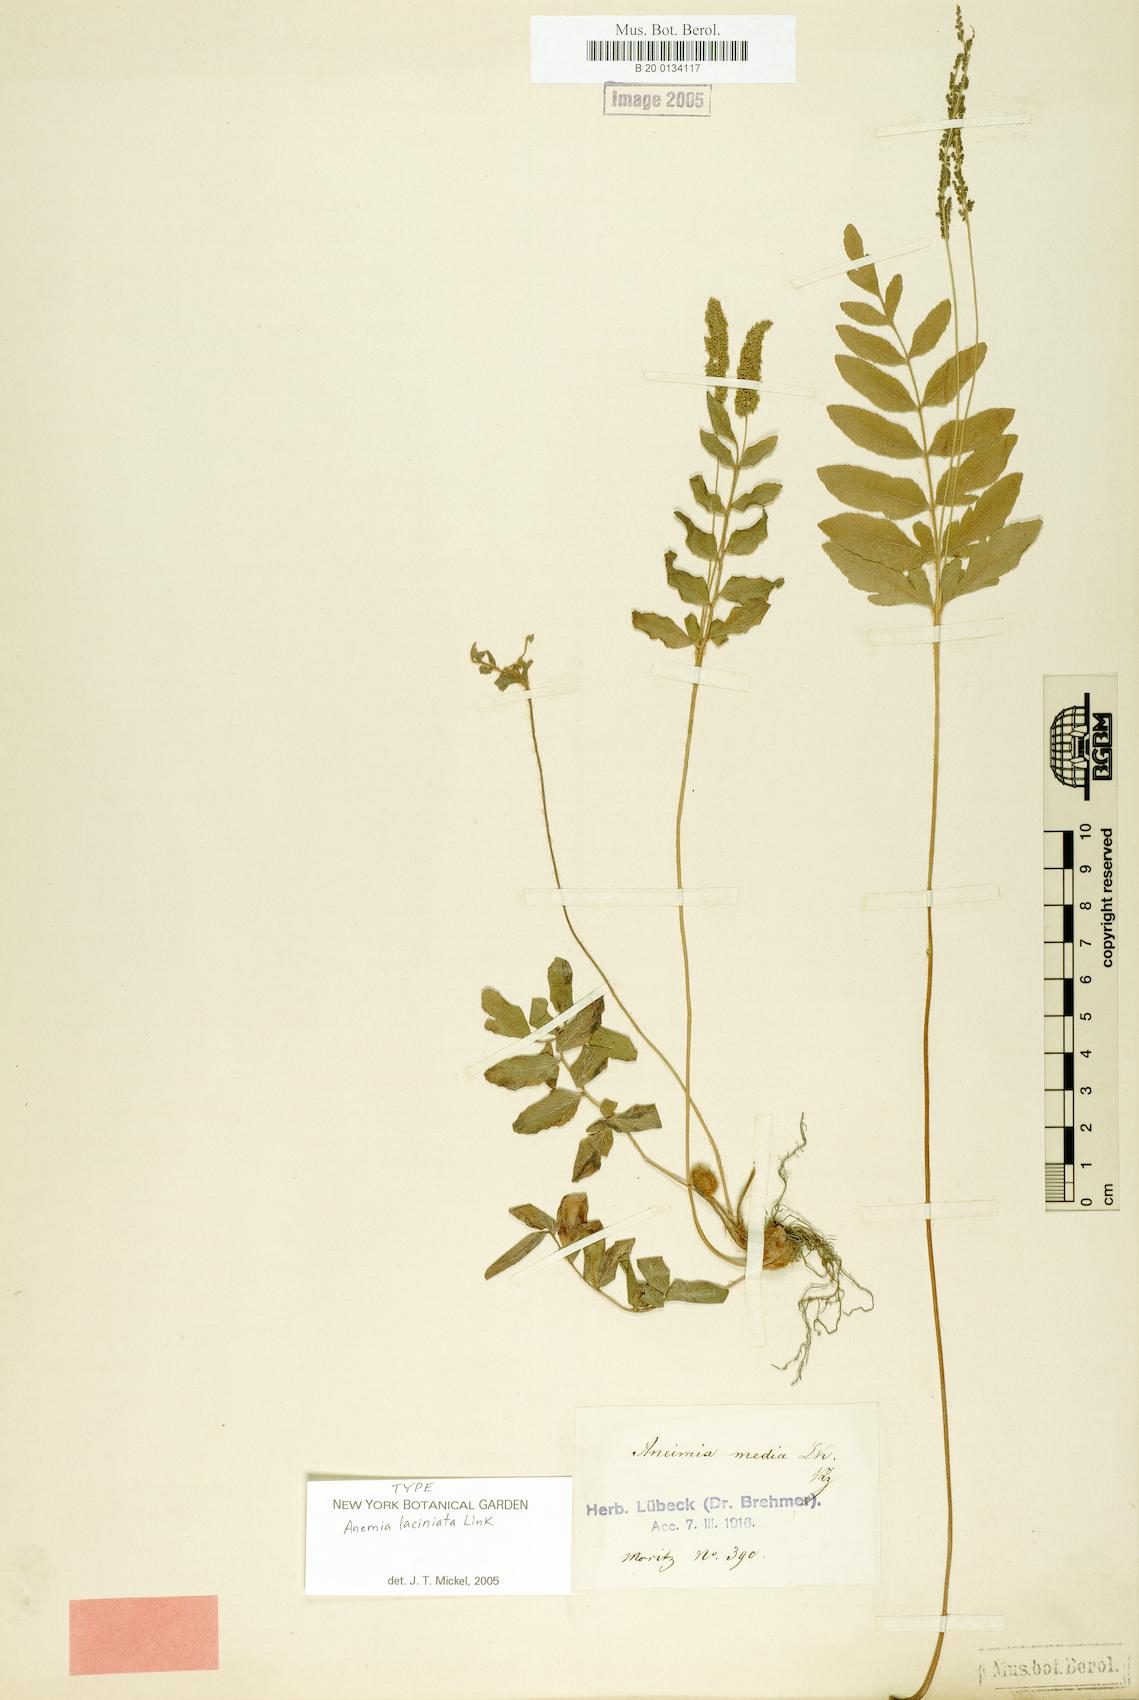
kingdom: Plantae
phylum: Tracheophyta
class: Polypodiopsida
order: Schizaeales
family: Anemiaceae
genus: Anemia
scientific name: Anemia phyllitidis
